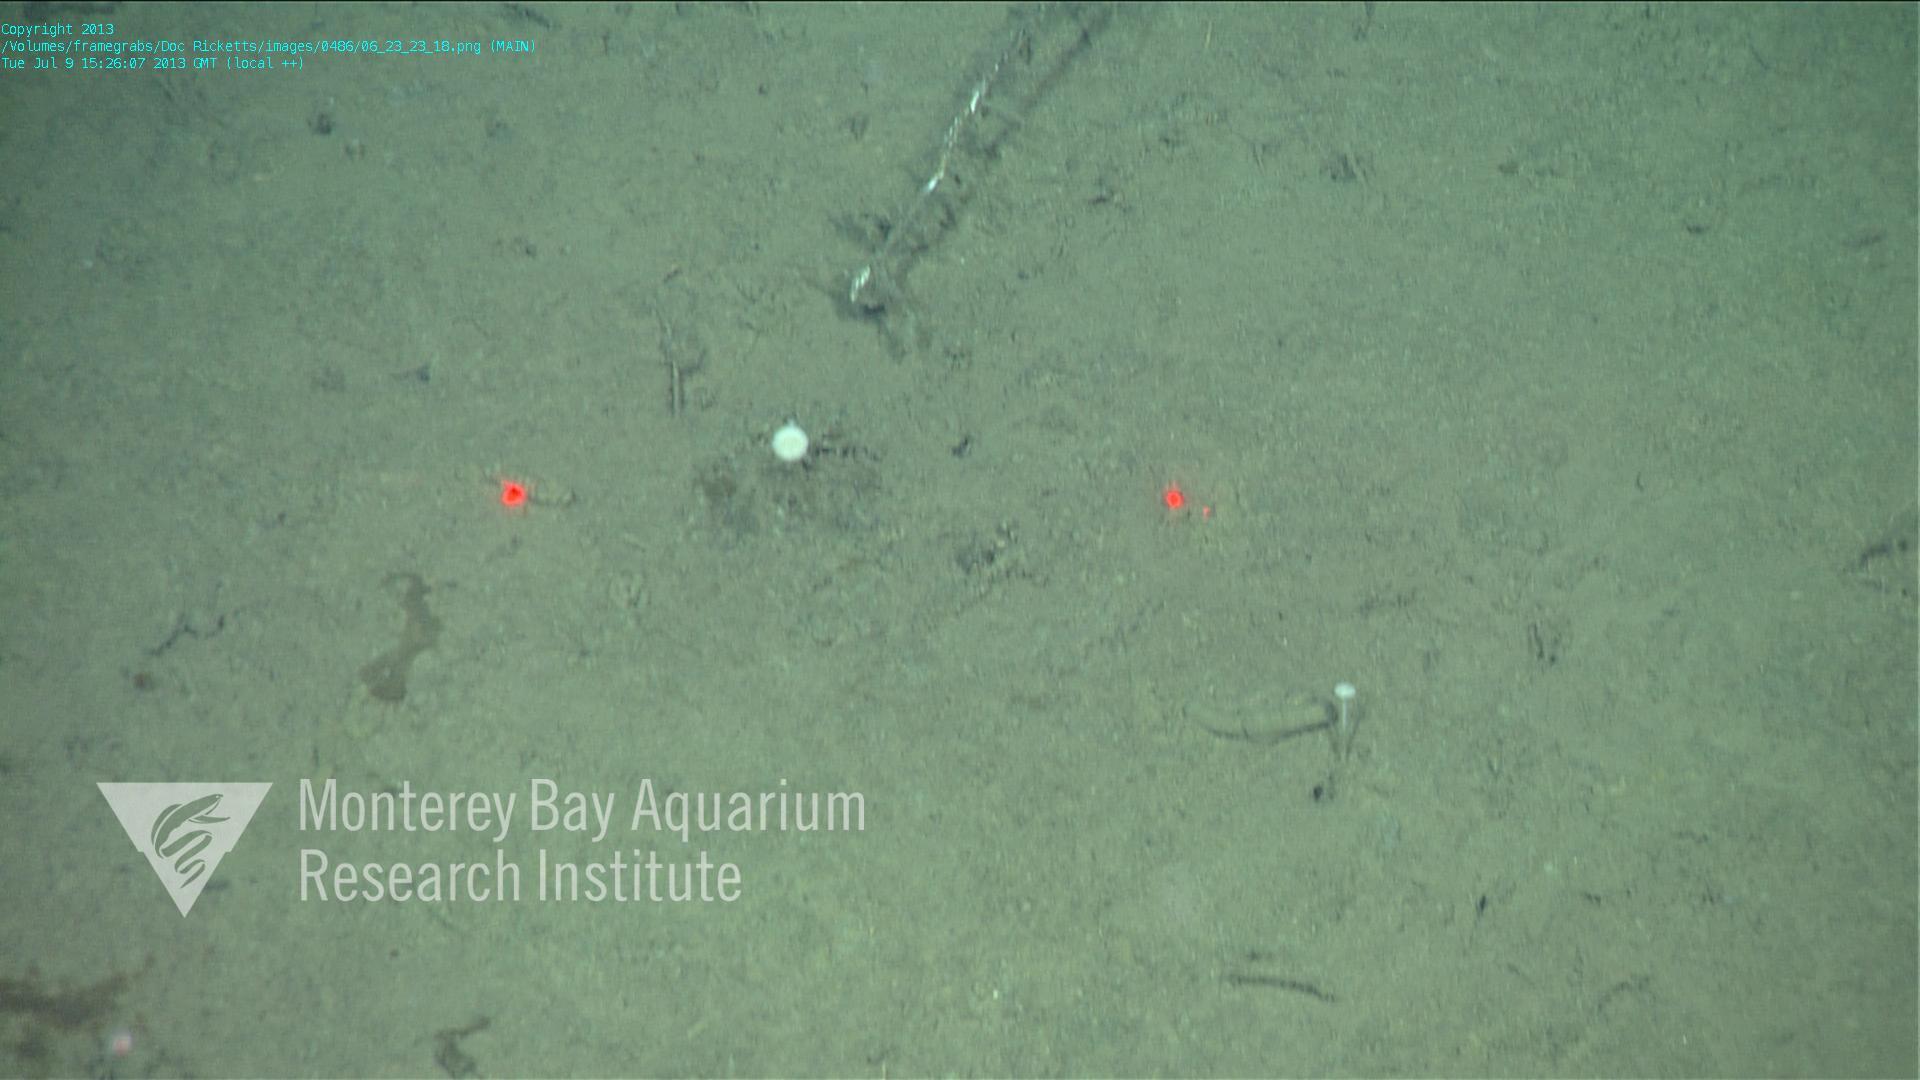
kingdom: Animalia
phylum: Porifera
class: Demospongiae
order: Poecilosclerida
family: Cladorhizidae
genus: Cladorhiza
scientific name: Cladorhiza
